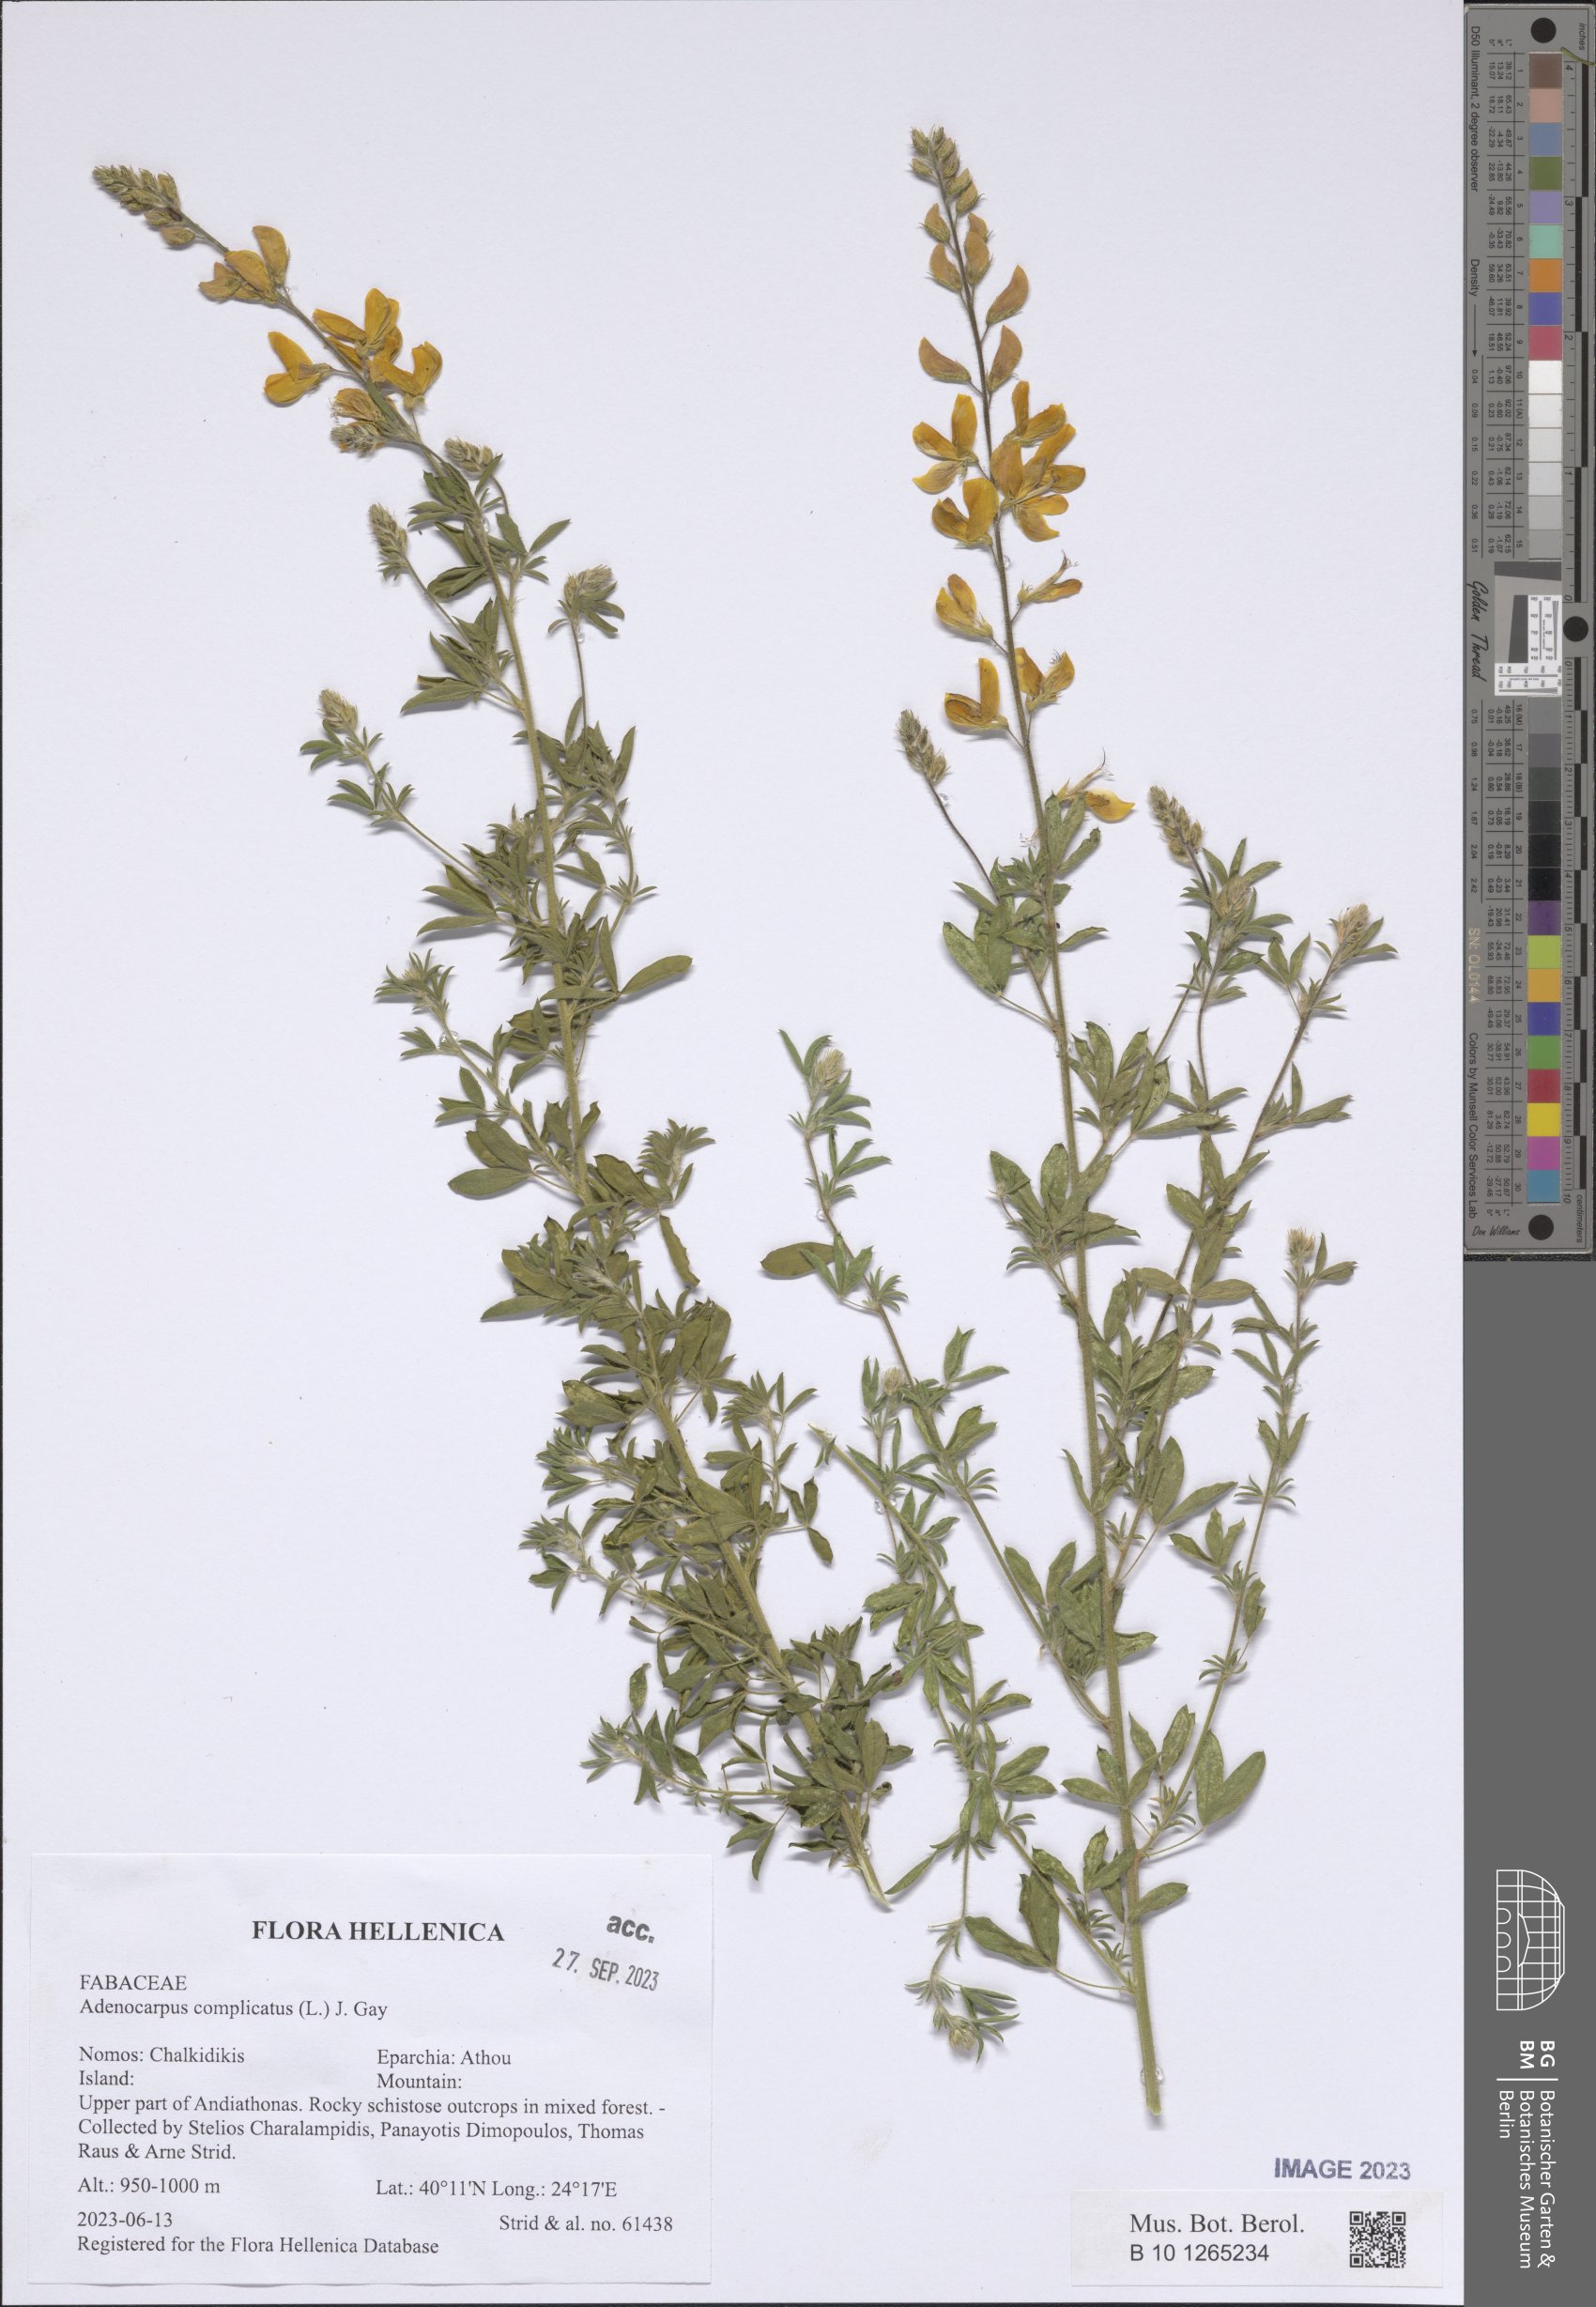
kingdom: Plantae
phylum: Tracheophyta
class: Magnoliopsida
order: Fabales
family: Fabaceae
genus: Adenocarpus
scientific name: Adenocarpus complicatus
